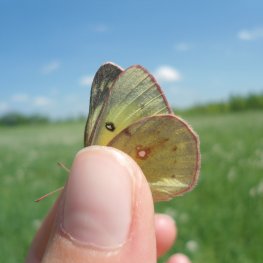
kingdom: Animalia
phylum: Arthropoda
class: Insecta
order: Lepidoptera
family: Pieridae
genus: Colias
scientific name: Colias philodice
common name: Clouded Sulphur
